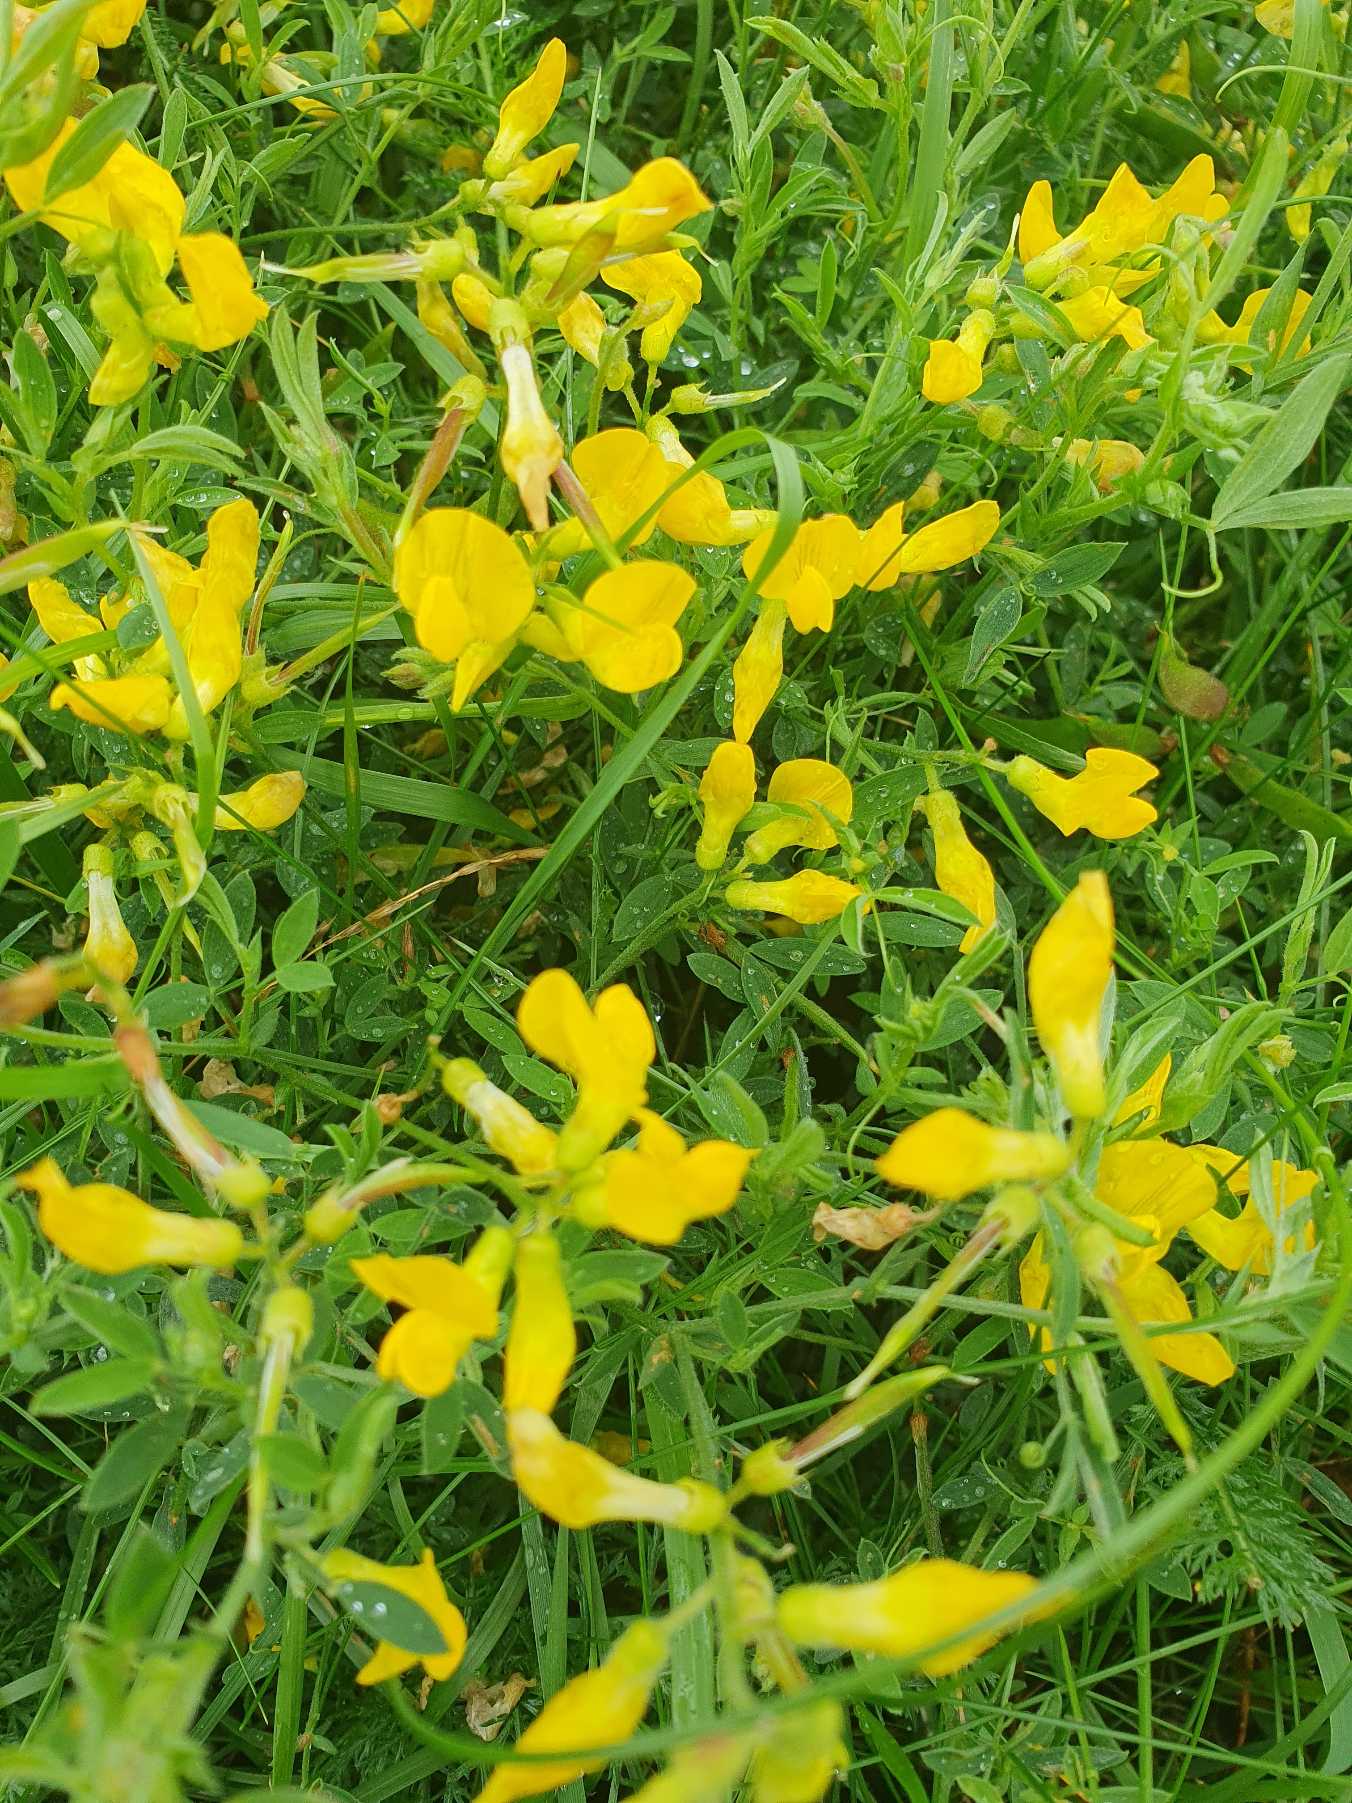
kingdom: Plantae
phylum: Tracheophyta
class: Magnoliopsida
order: Fabales
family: Fabaceae
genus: Lathyrus
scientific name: Lathyrus pratensis
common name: Gul fladbælg
